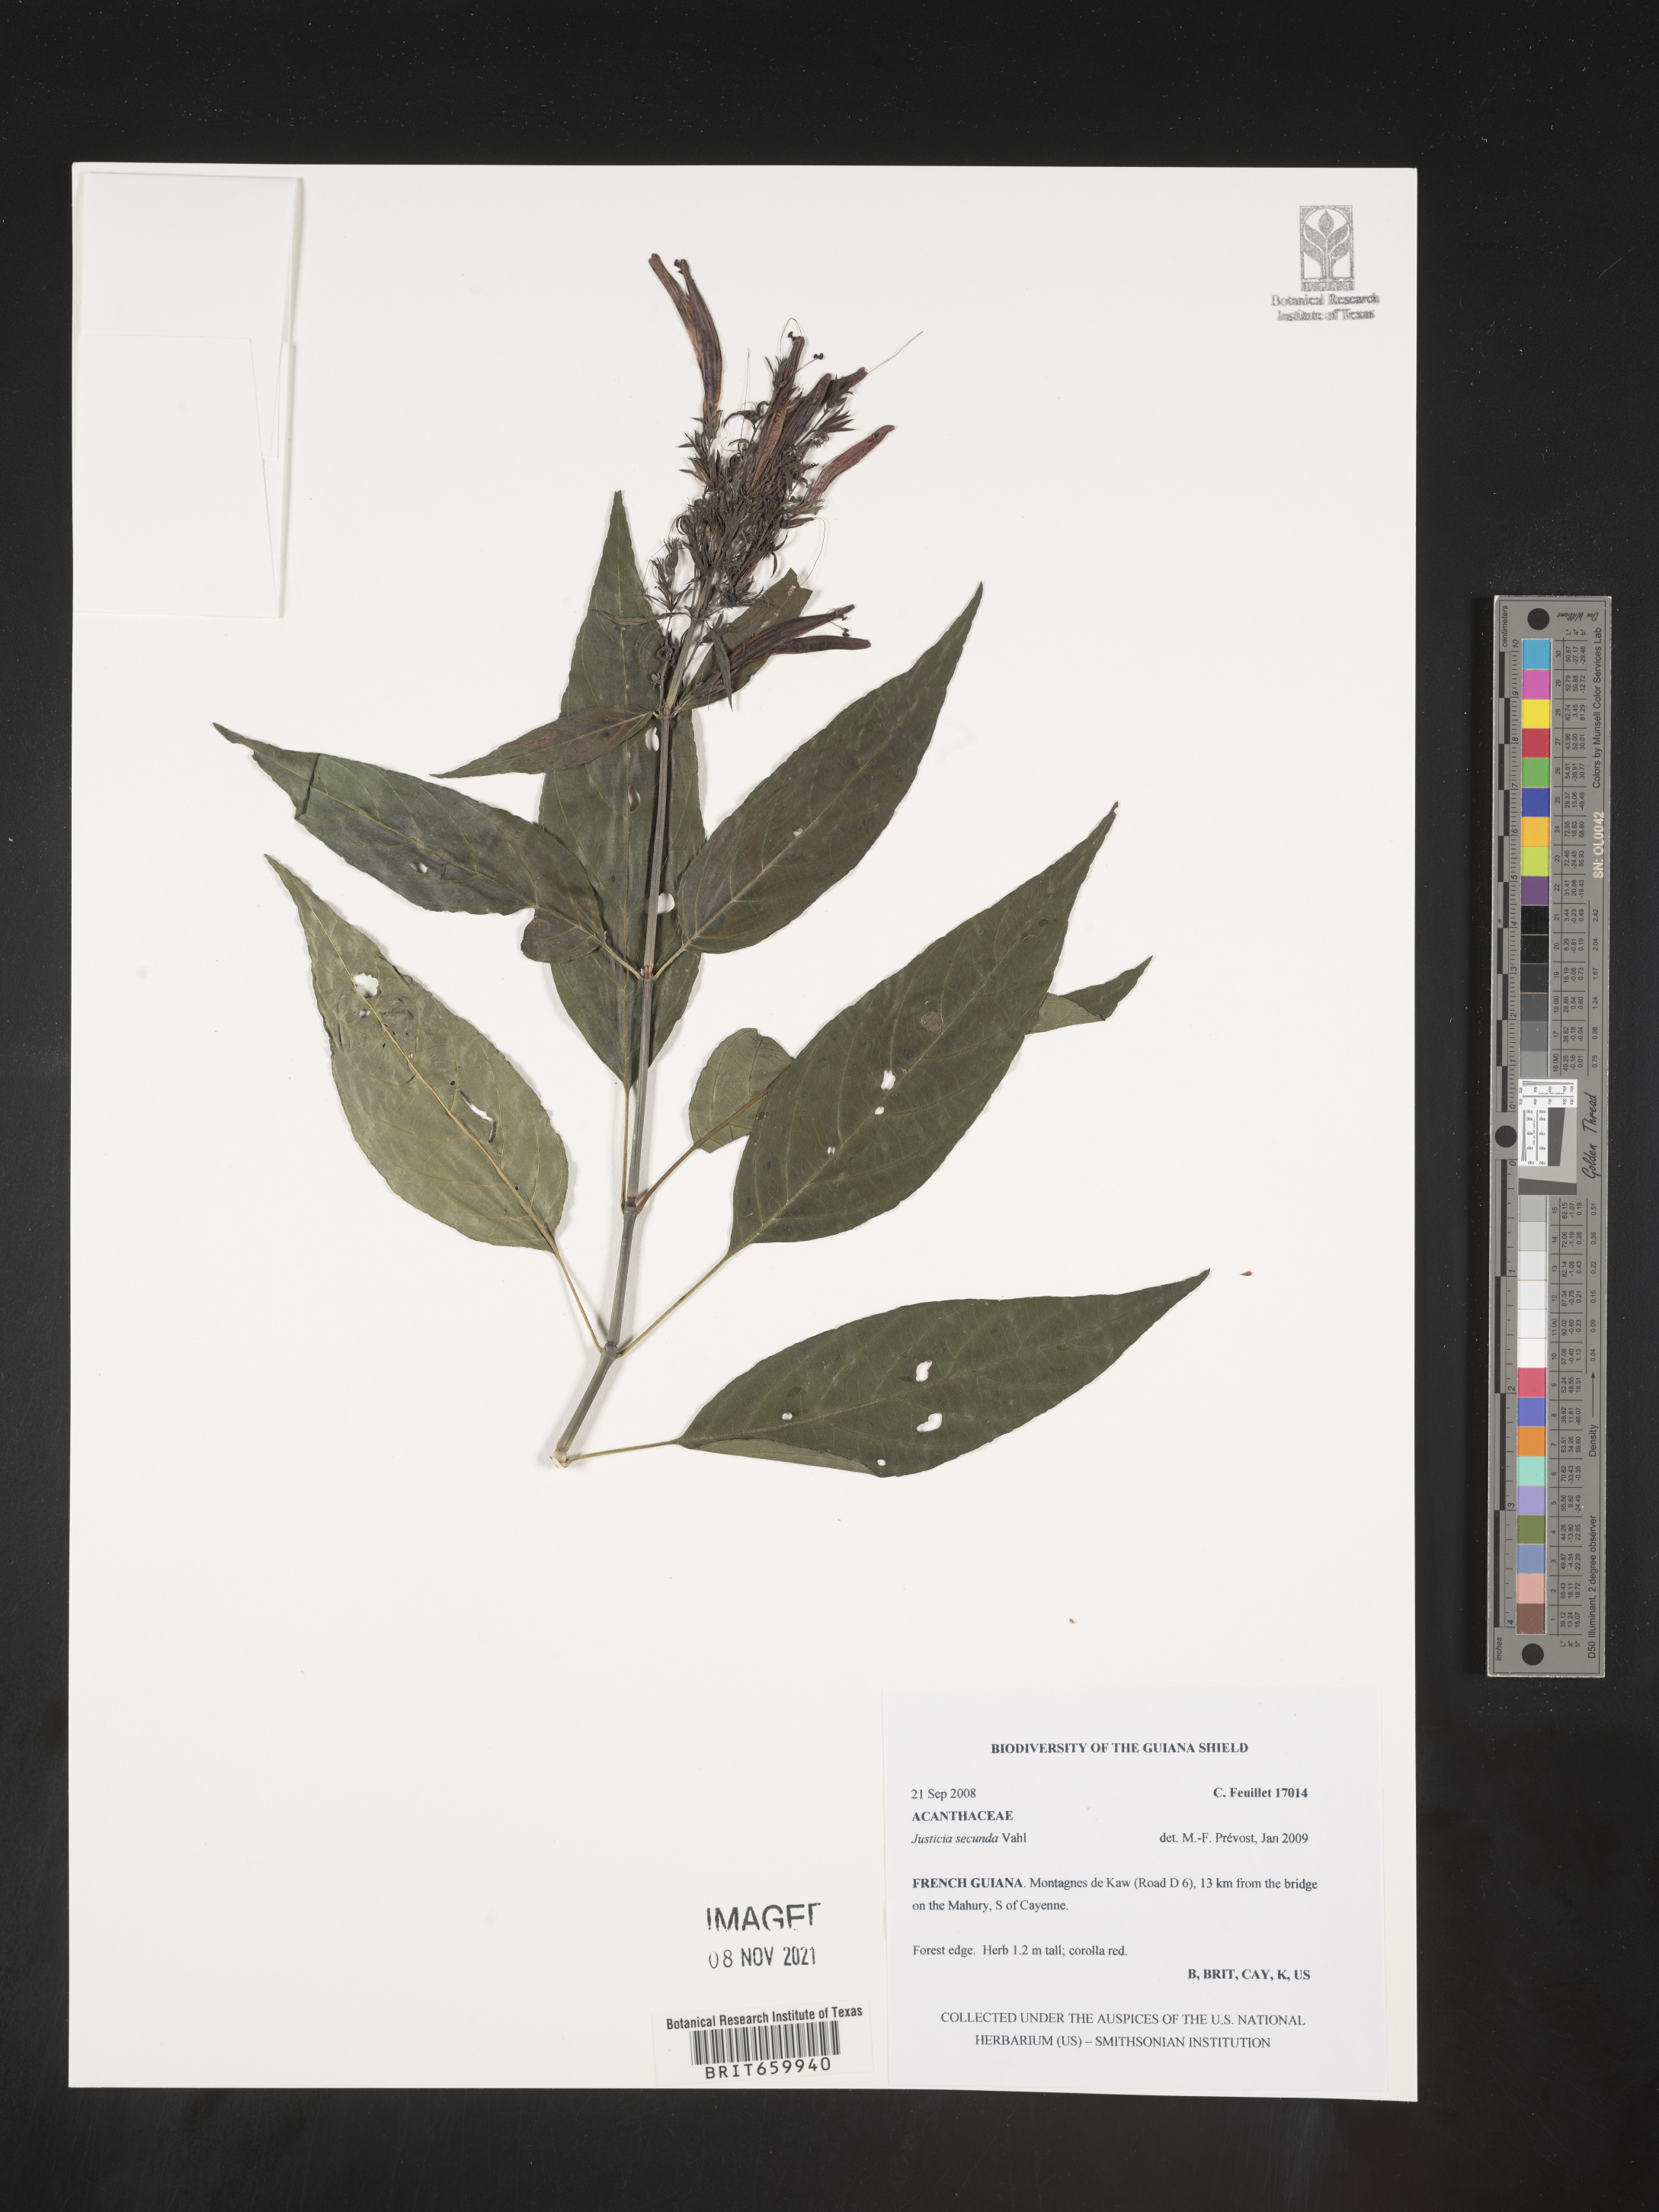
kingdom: Plantae
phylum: Tracheophyta
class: Magnoliopsida
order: Lamiales
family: Acanthaceae
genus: Justicia
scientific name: Justicia secunda
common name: Blood root
